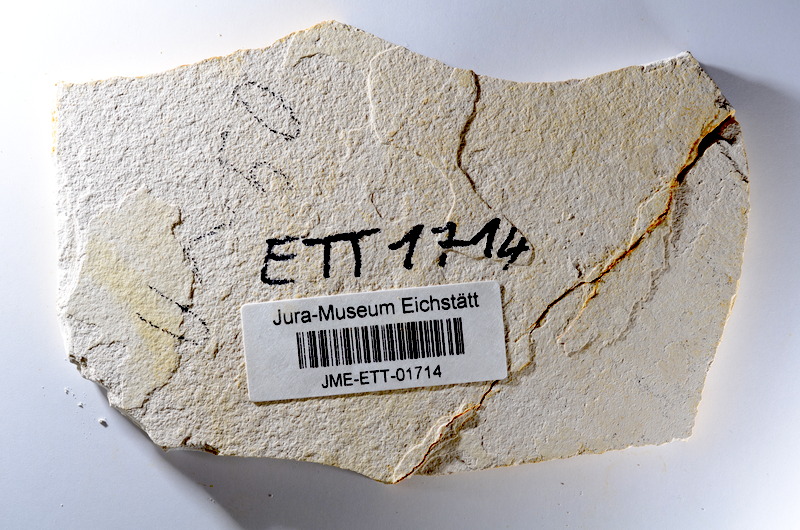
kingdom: Animalia
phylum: Chordata
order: Salmoniformes
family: Orthogonikleithridae
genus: Orthogonikleithrus
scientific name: Orthogonikleithrus hoelli
